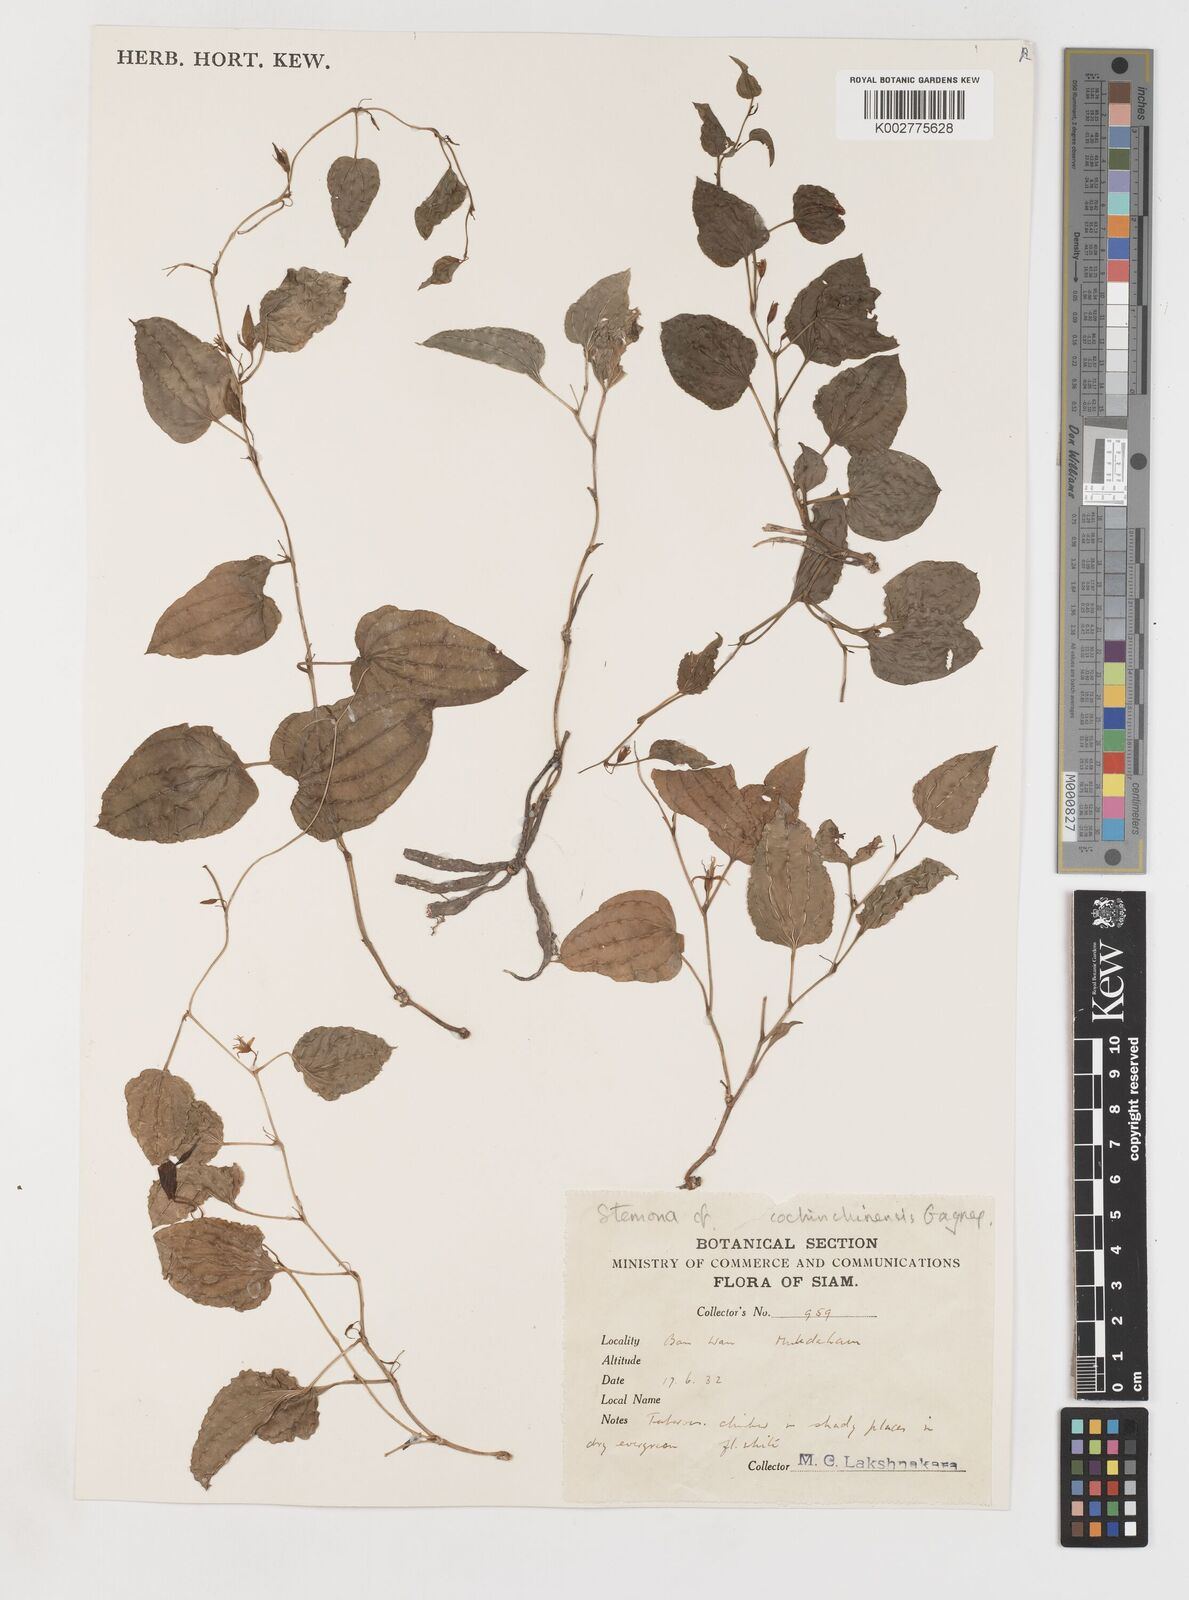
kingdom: Plantae
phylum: Tracheophyta
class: Liliopsida
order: Pandanales
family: Stemonaceae
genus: Stemona
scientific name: Stemona cochinchinensis
